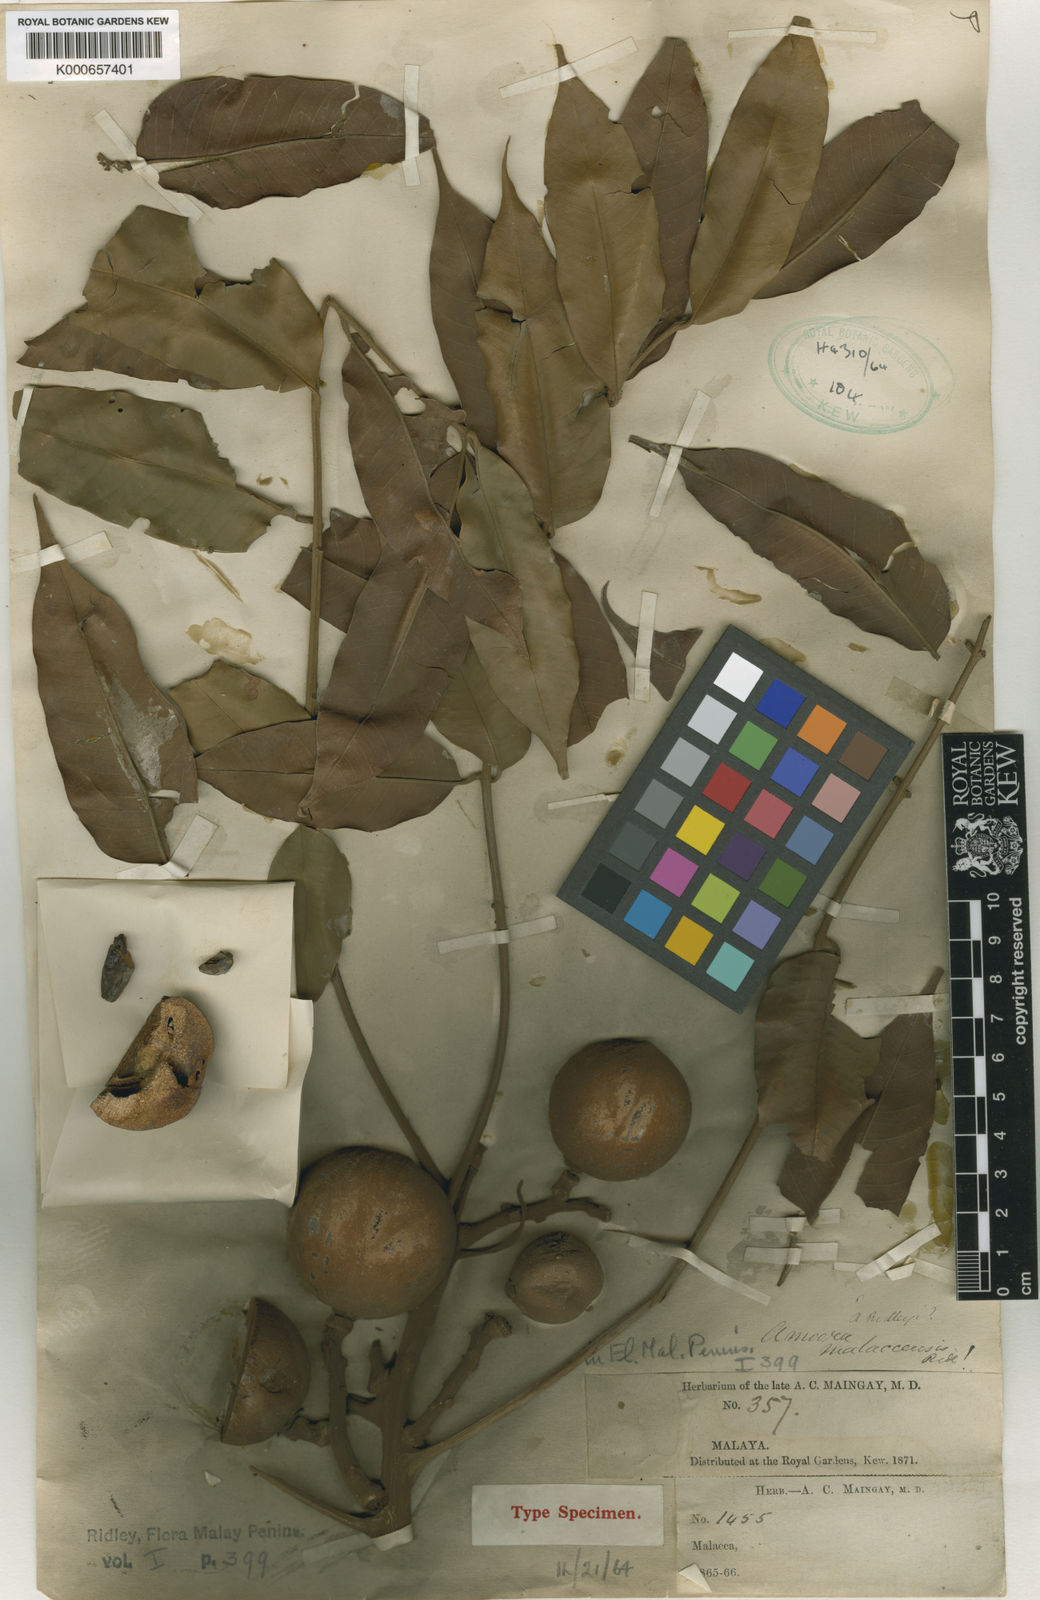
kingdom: Plantae
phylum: Tracheophyta
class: Magnoliopsida
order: Sapindales
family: Meliaceae
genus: Aglaia
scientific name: Aglaia malaccensis
